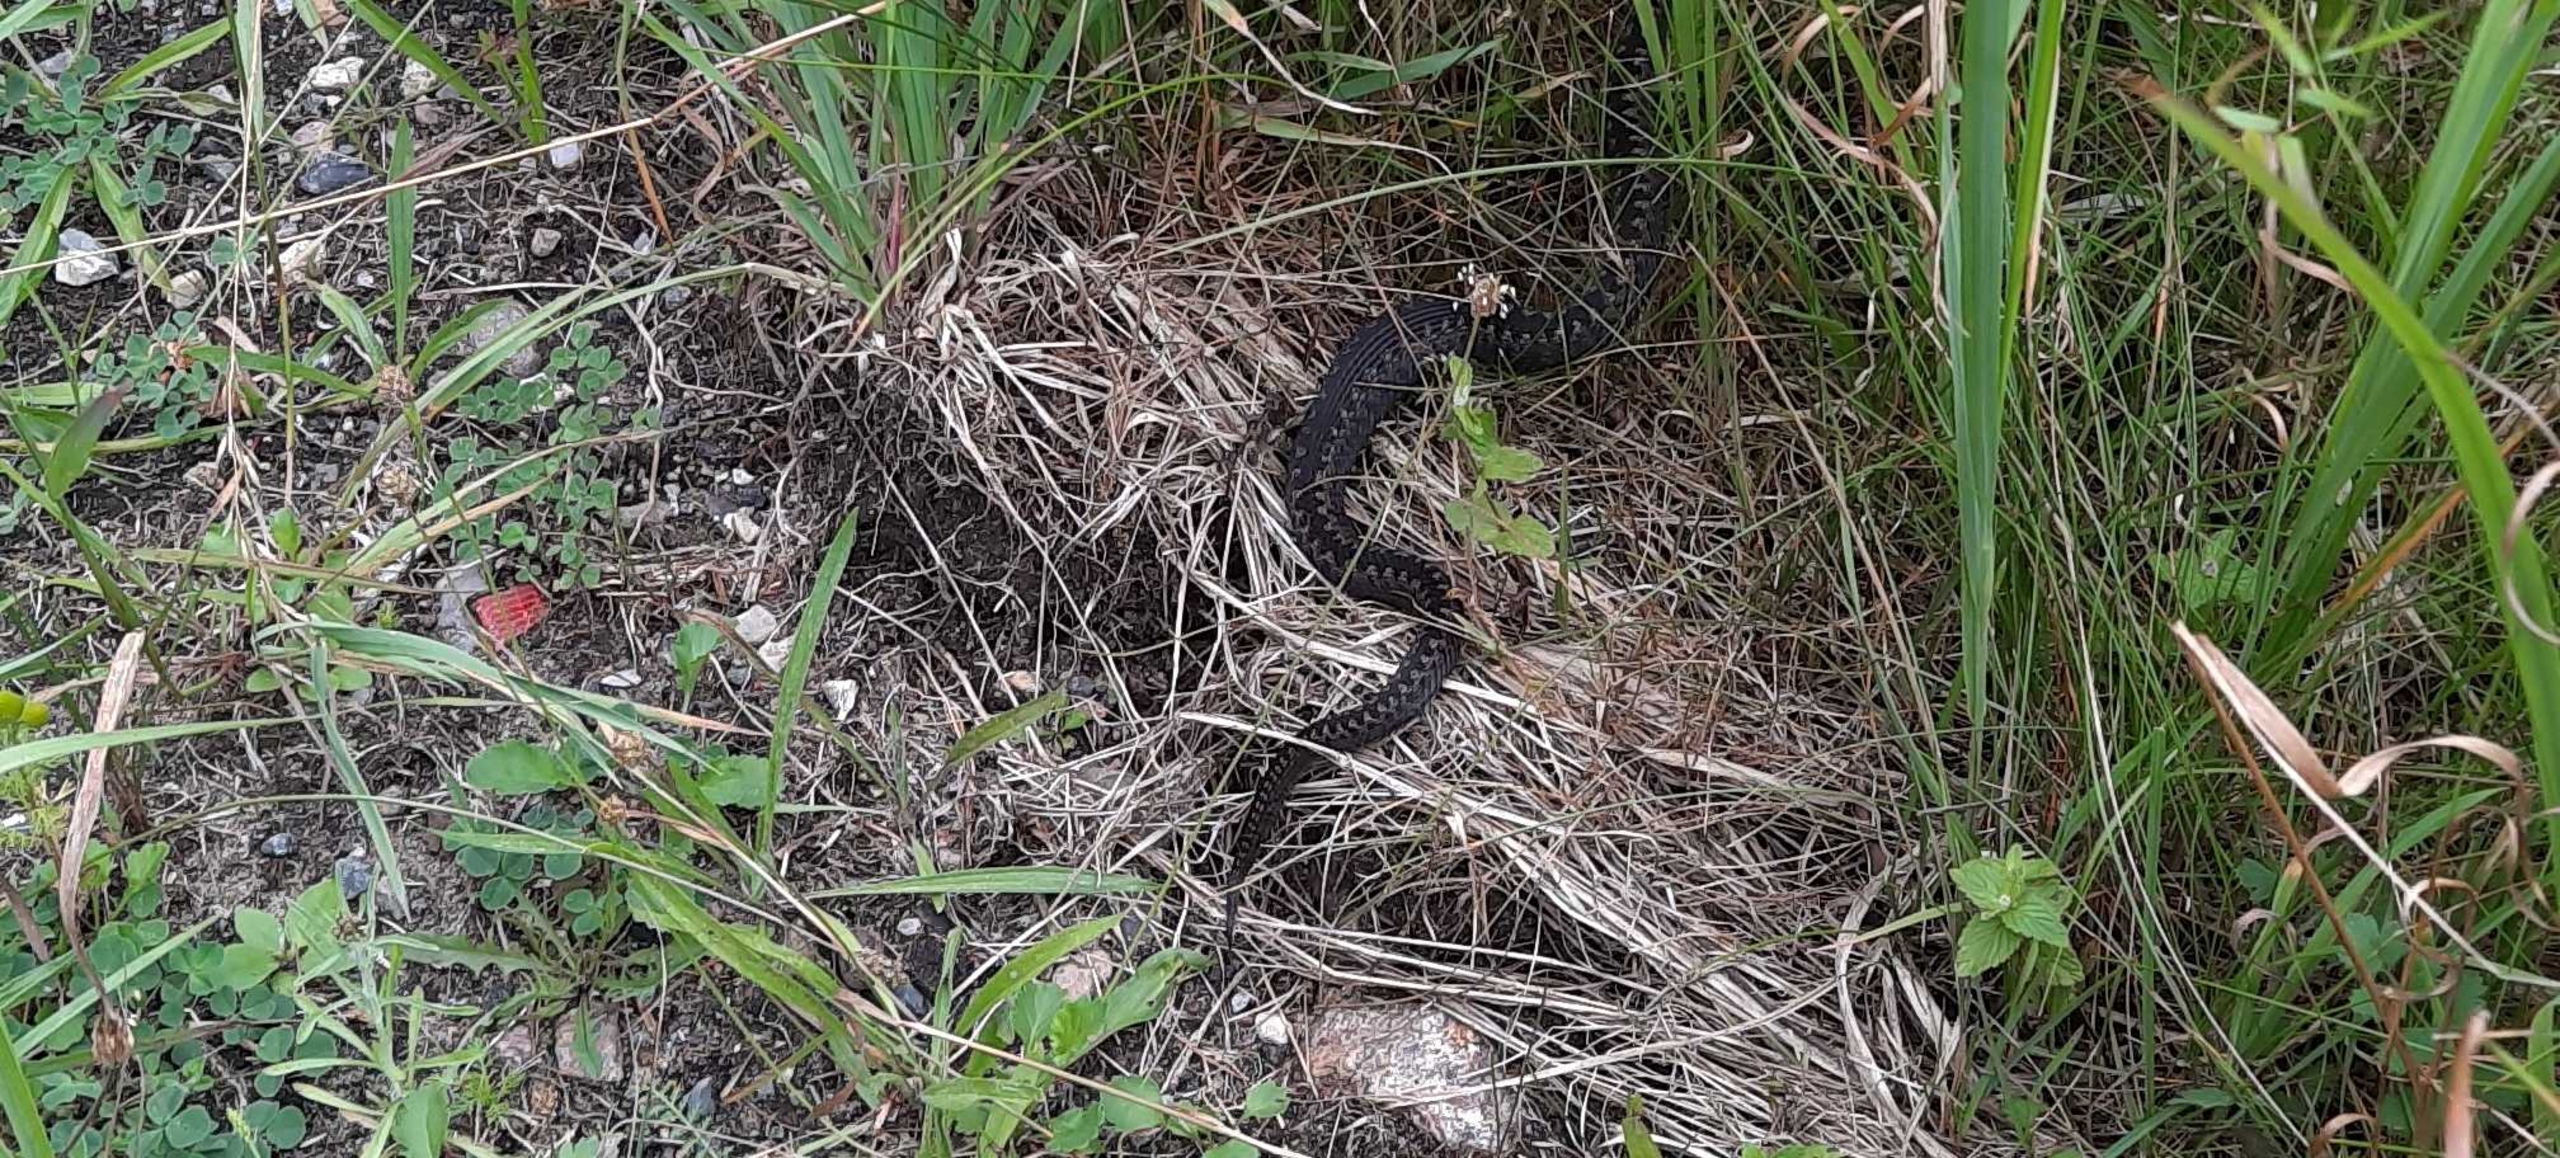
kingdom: Animalia
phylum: Chordata
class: Squamata
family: Viperidae
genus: Vipera
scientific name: Vipera berus
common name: Hugorm
